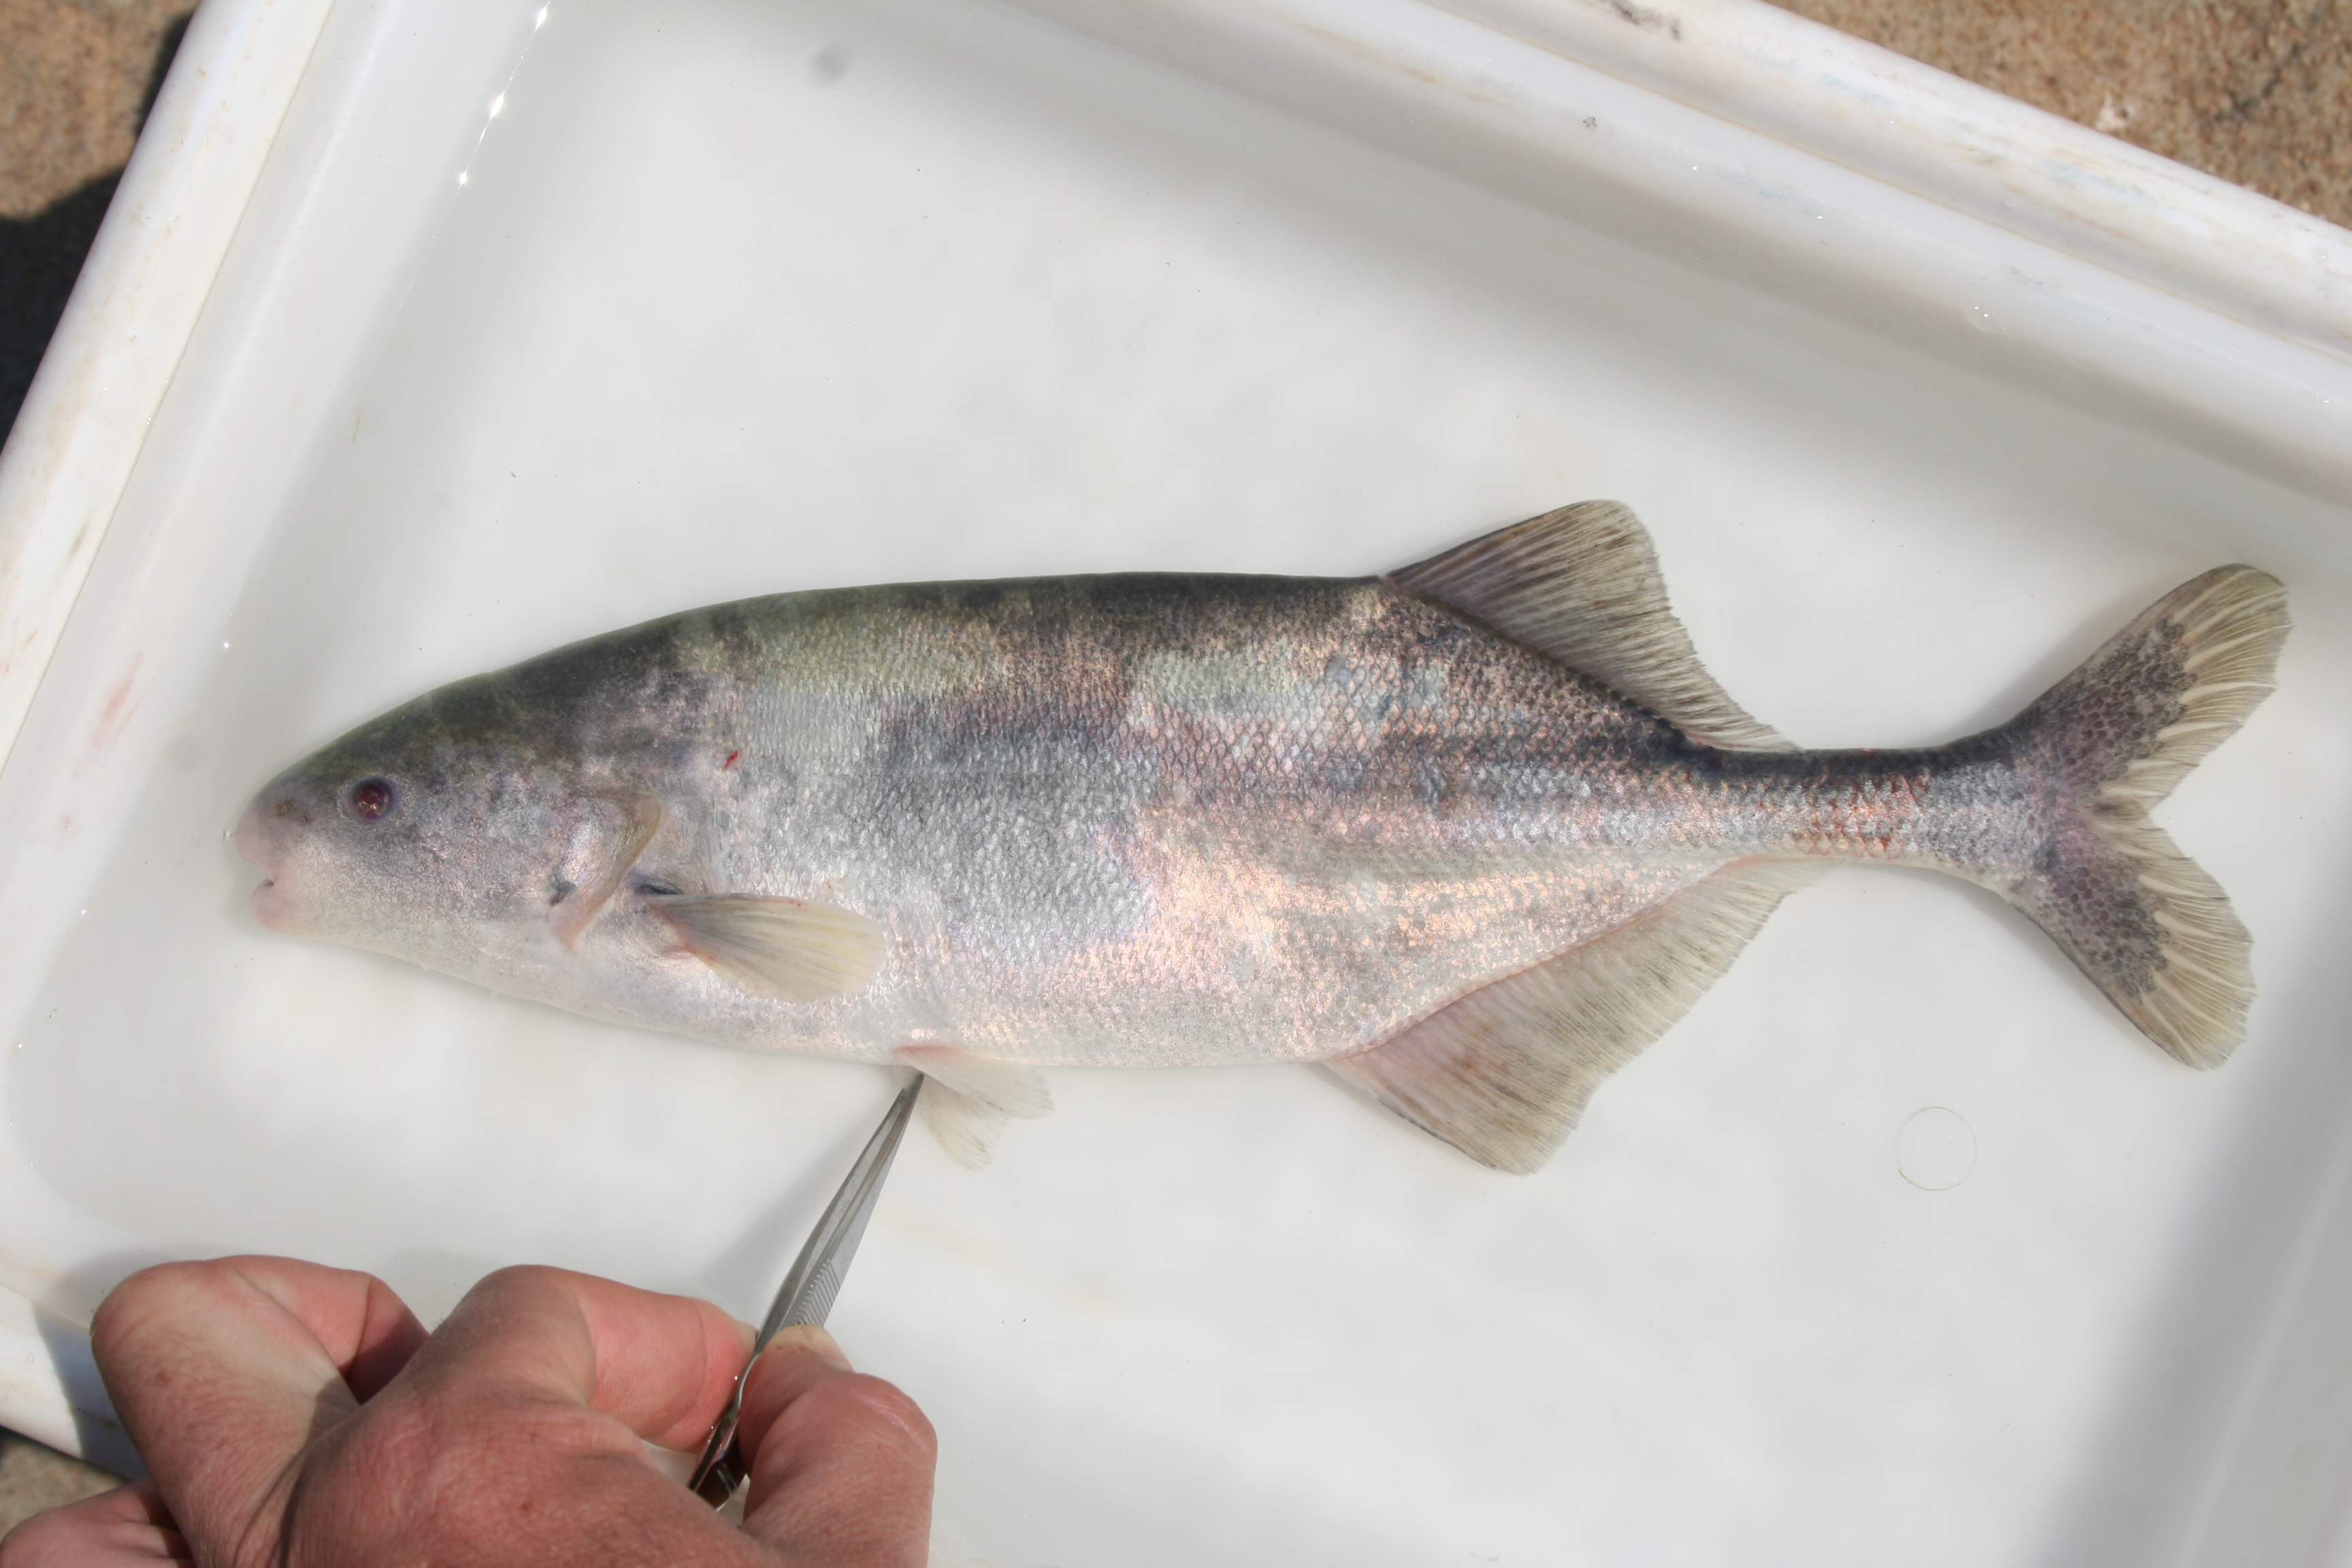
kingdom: Animalia
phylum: Chordata
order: Osteoglossiformes
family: Mormyridae
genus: Mormyrus
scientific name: Mormyrus
